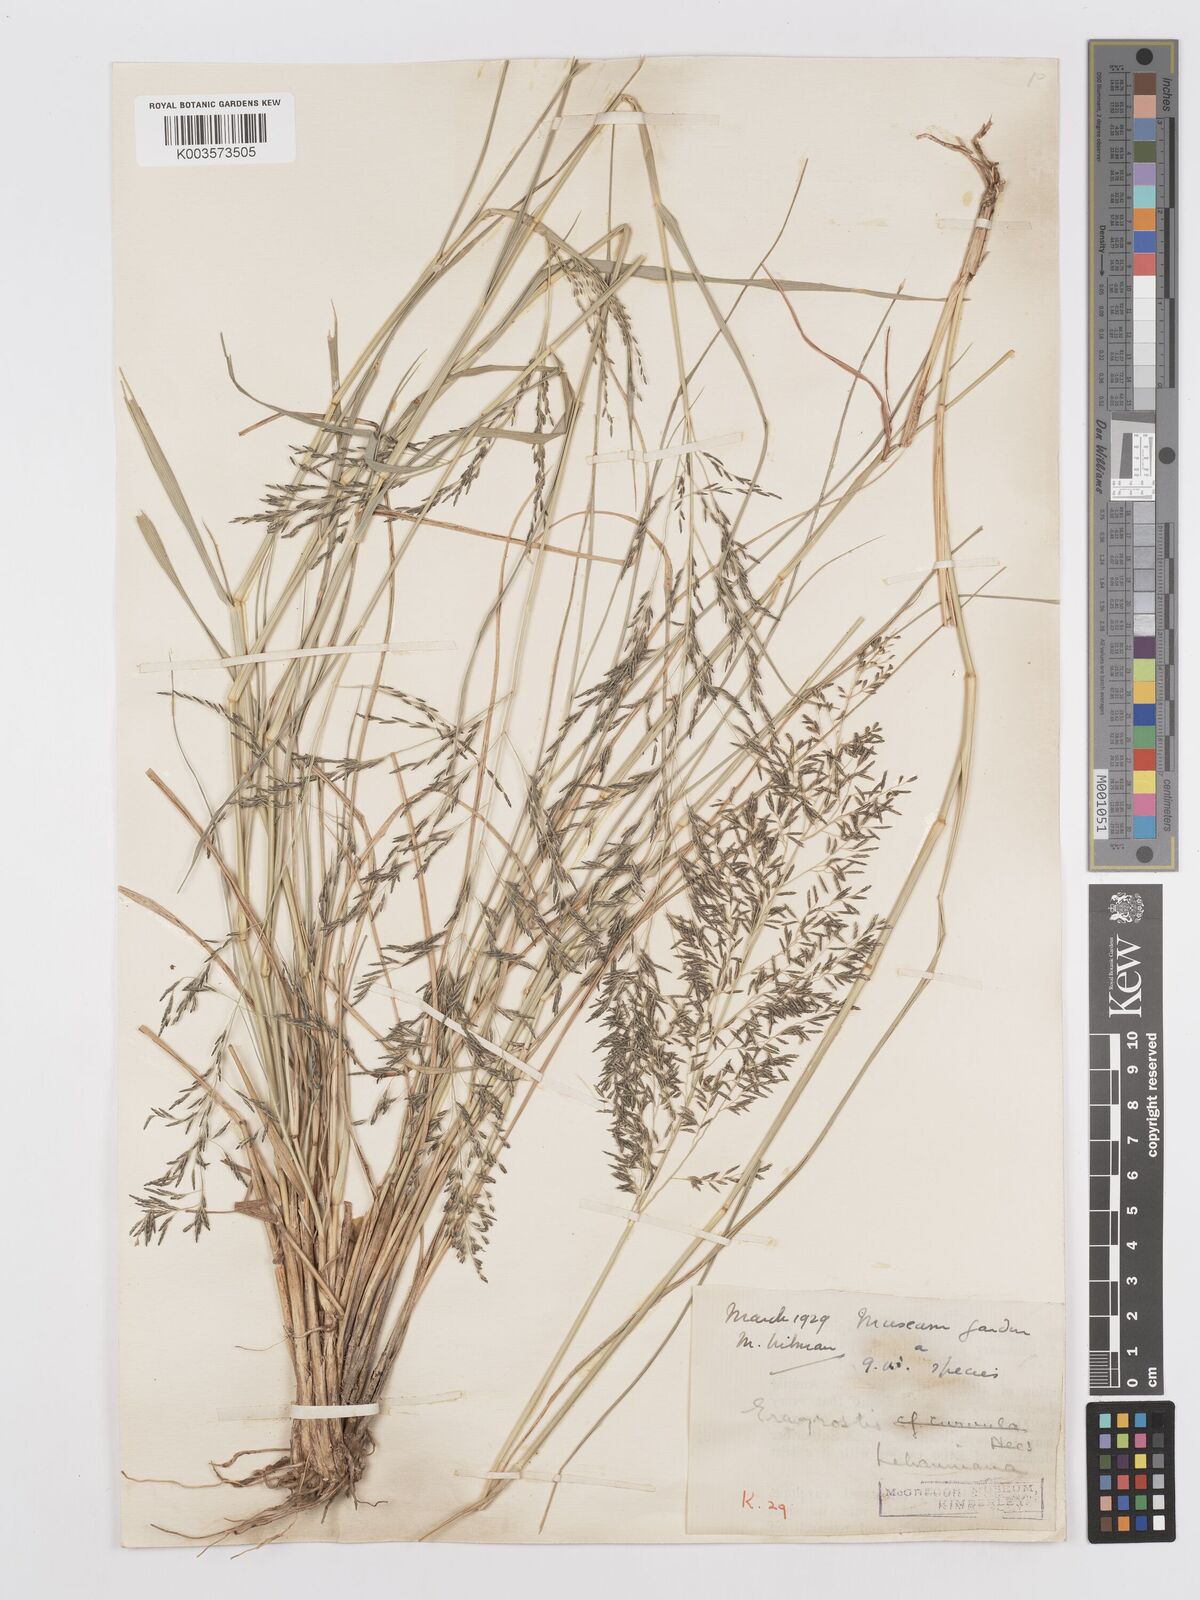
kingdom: Plantae
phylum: Tracheophyta
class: Liliopsida
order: Poales
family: Poaceae
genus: Eragrostis
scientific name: Eragrostis lehmanniana
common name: Lehmann lovegrass
